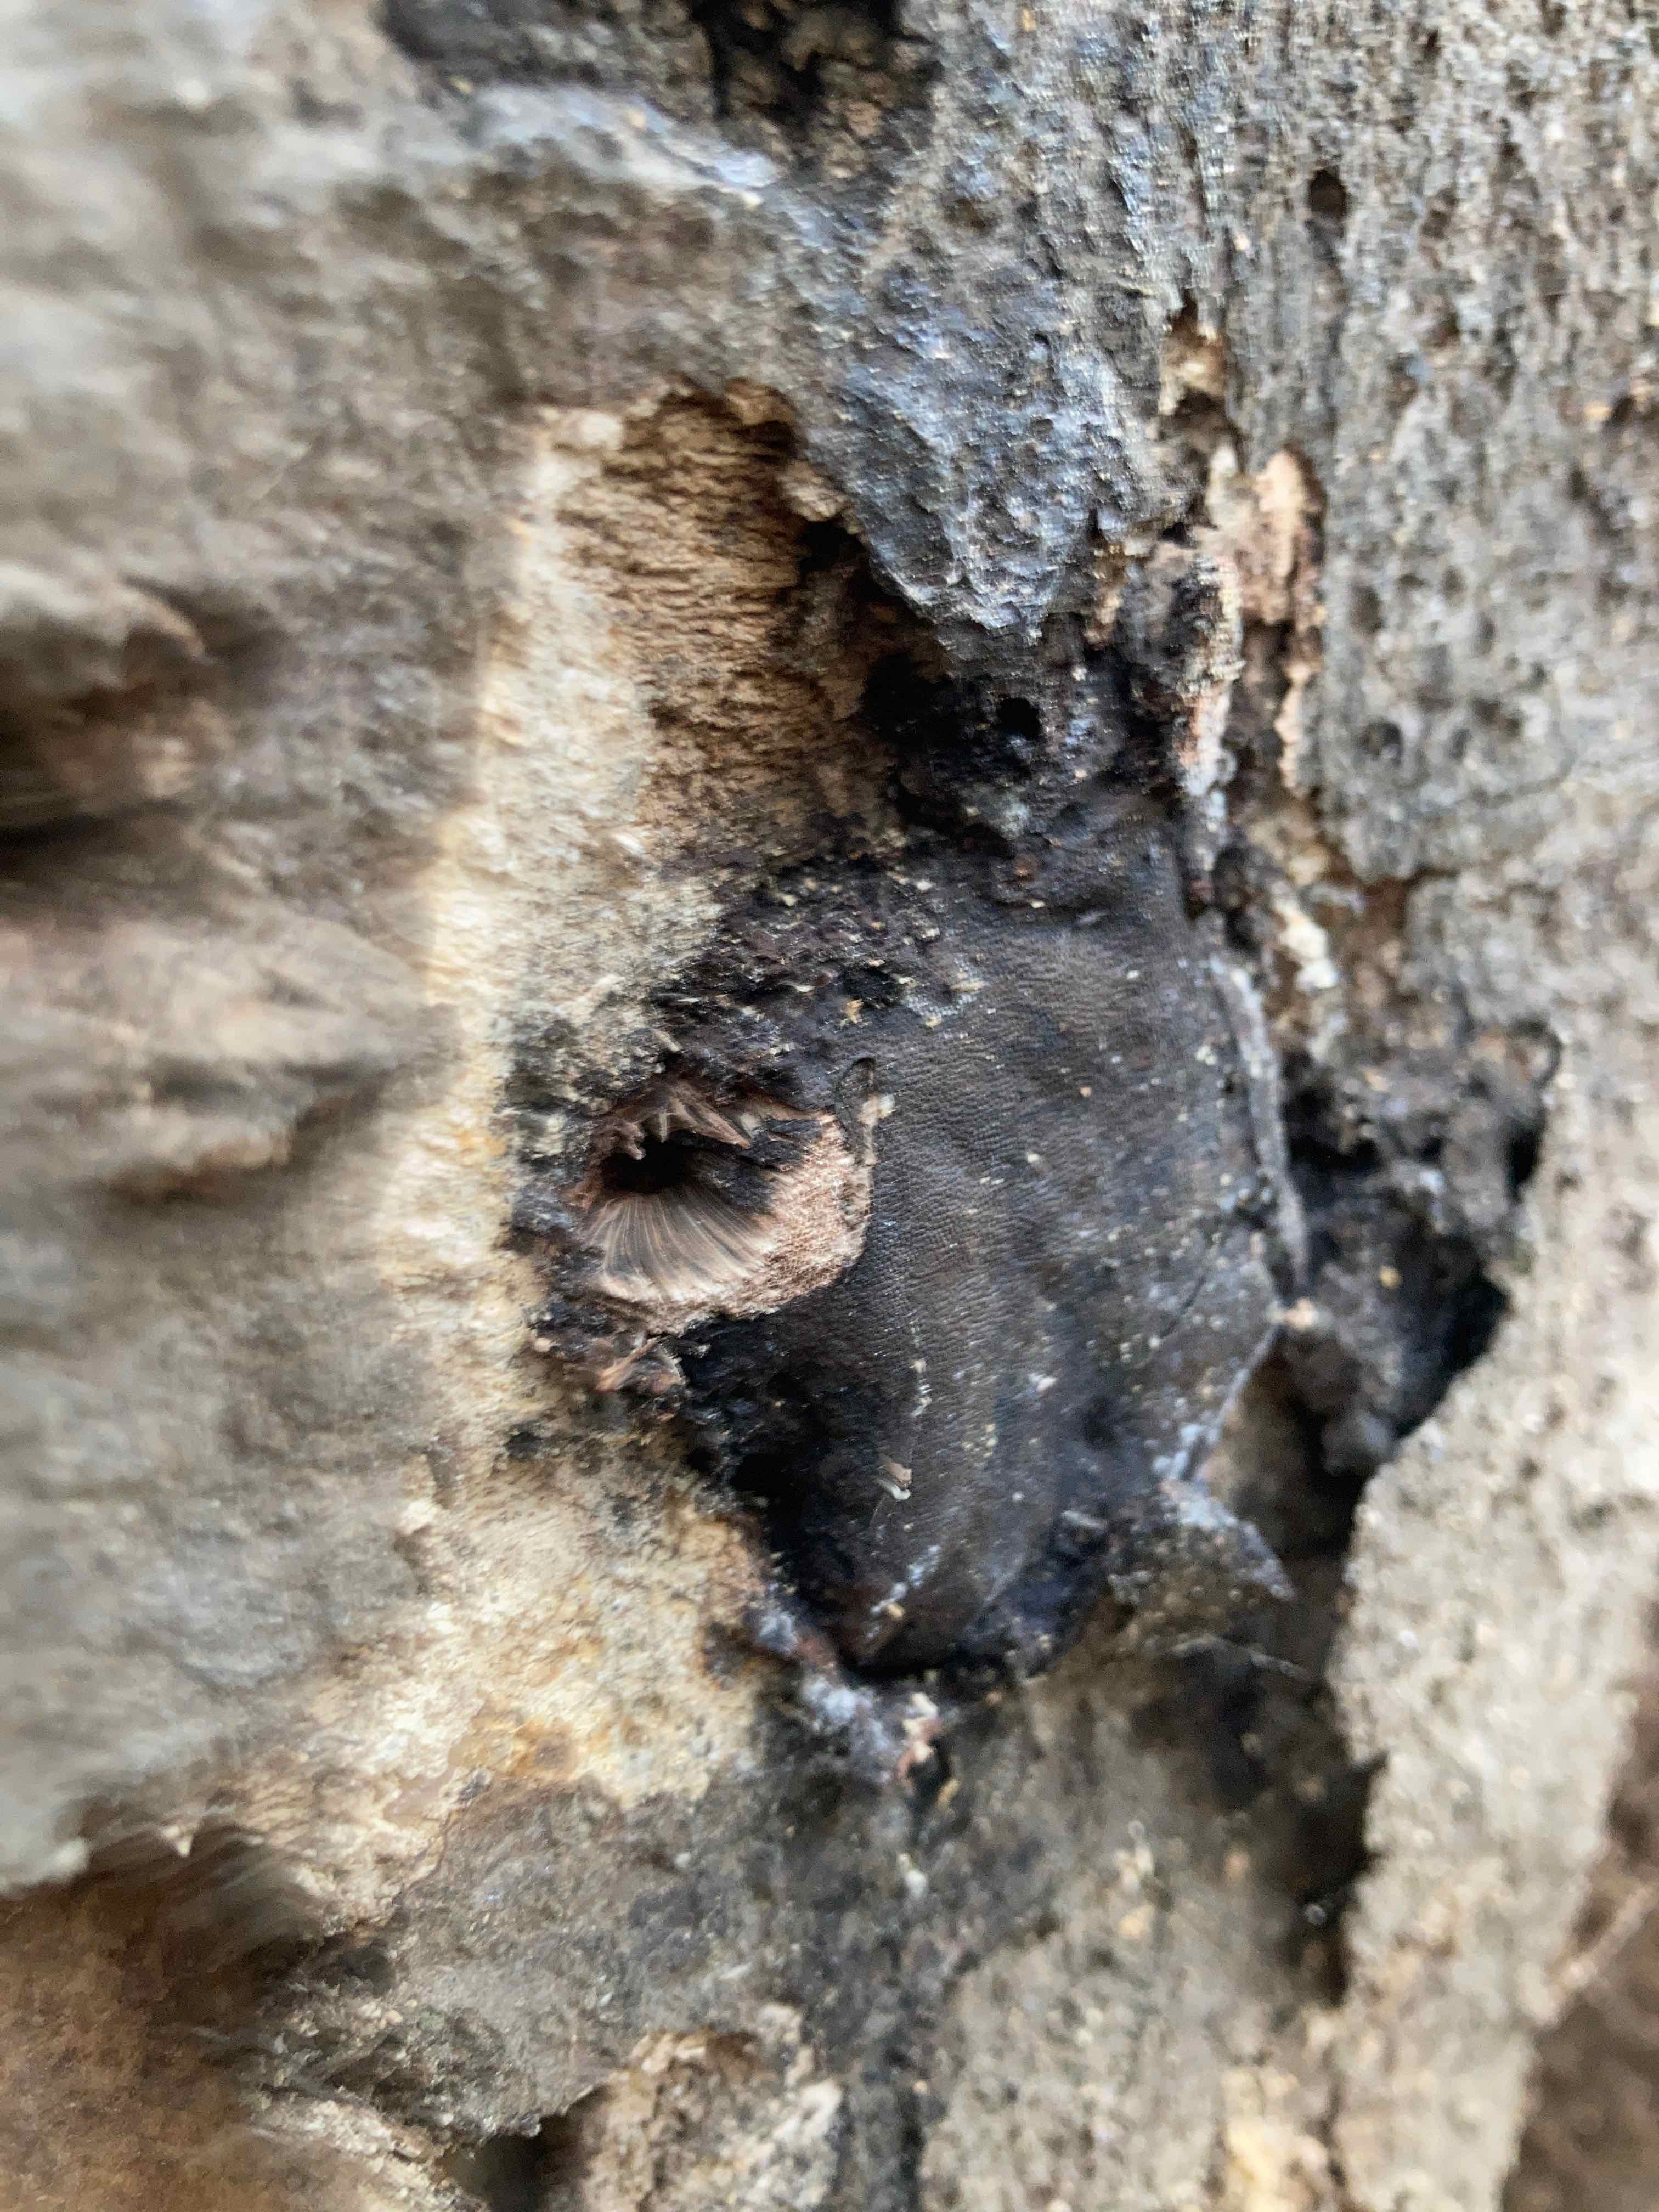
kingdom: Fungi
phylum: Ascomycota
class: Sordariomycetes
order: Boliniales
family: Boliniaceae
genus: Camarops
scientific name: Camarops polysperma
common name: elle-kulsnegl
